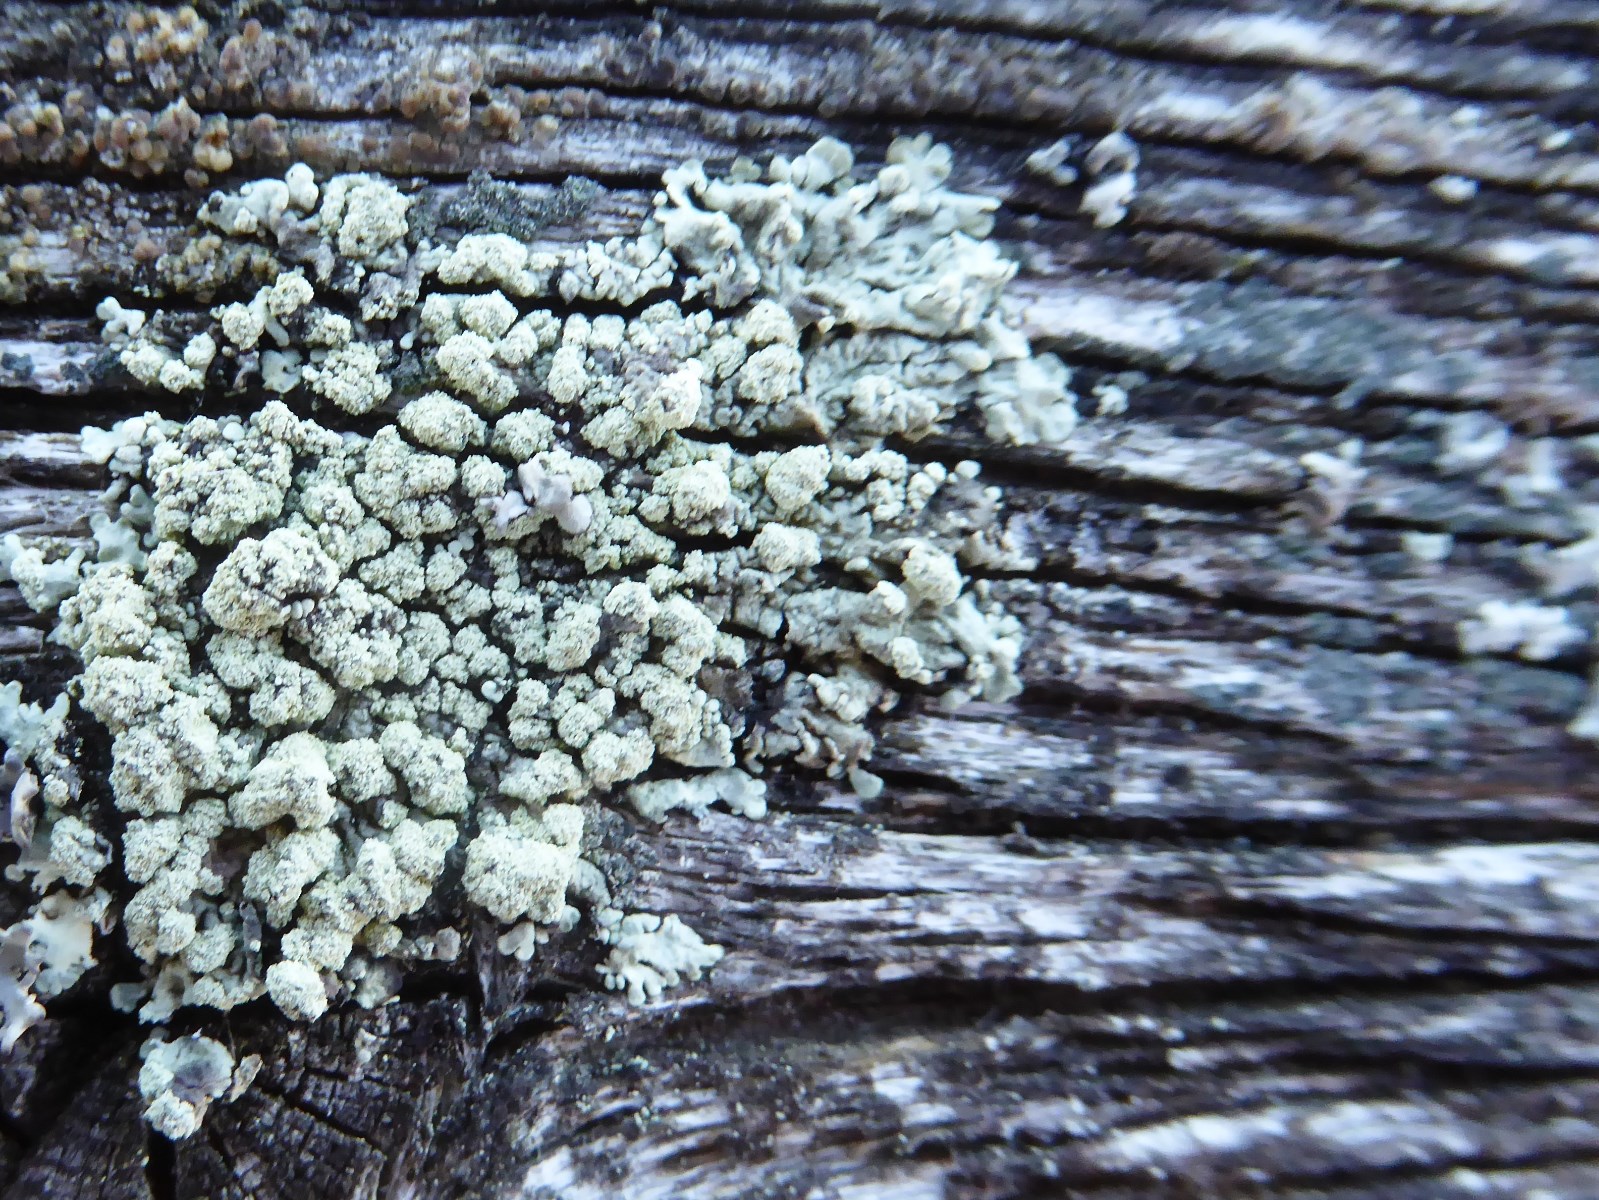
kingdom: Fungi
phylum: Ascomycota
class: Lecanoromycetes
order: Lecanorales
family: Parmeliaceae
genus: Parmeliopsis
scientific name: Parmeliopsis ambigua
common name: gul stolpelav
